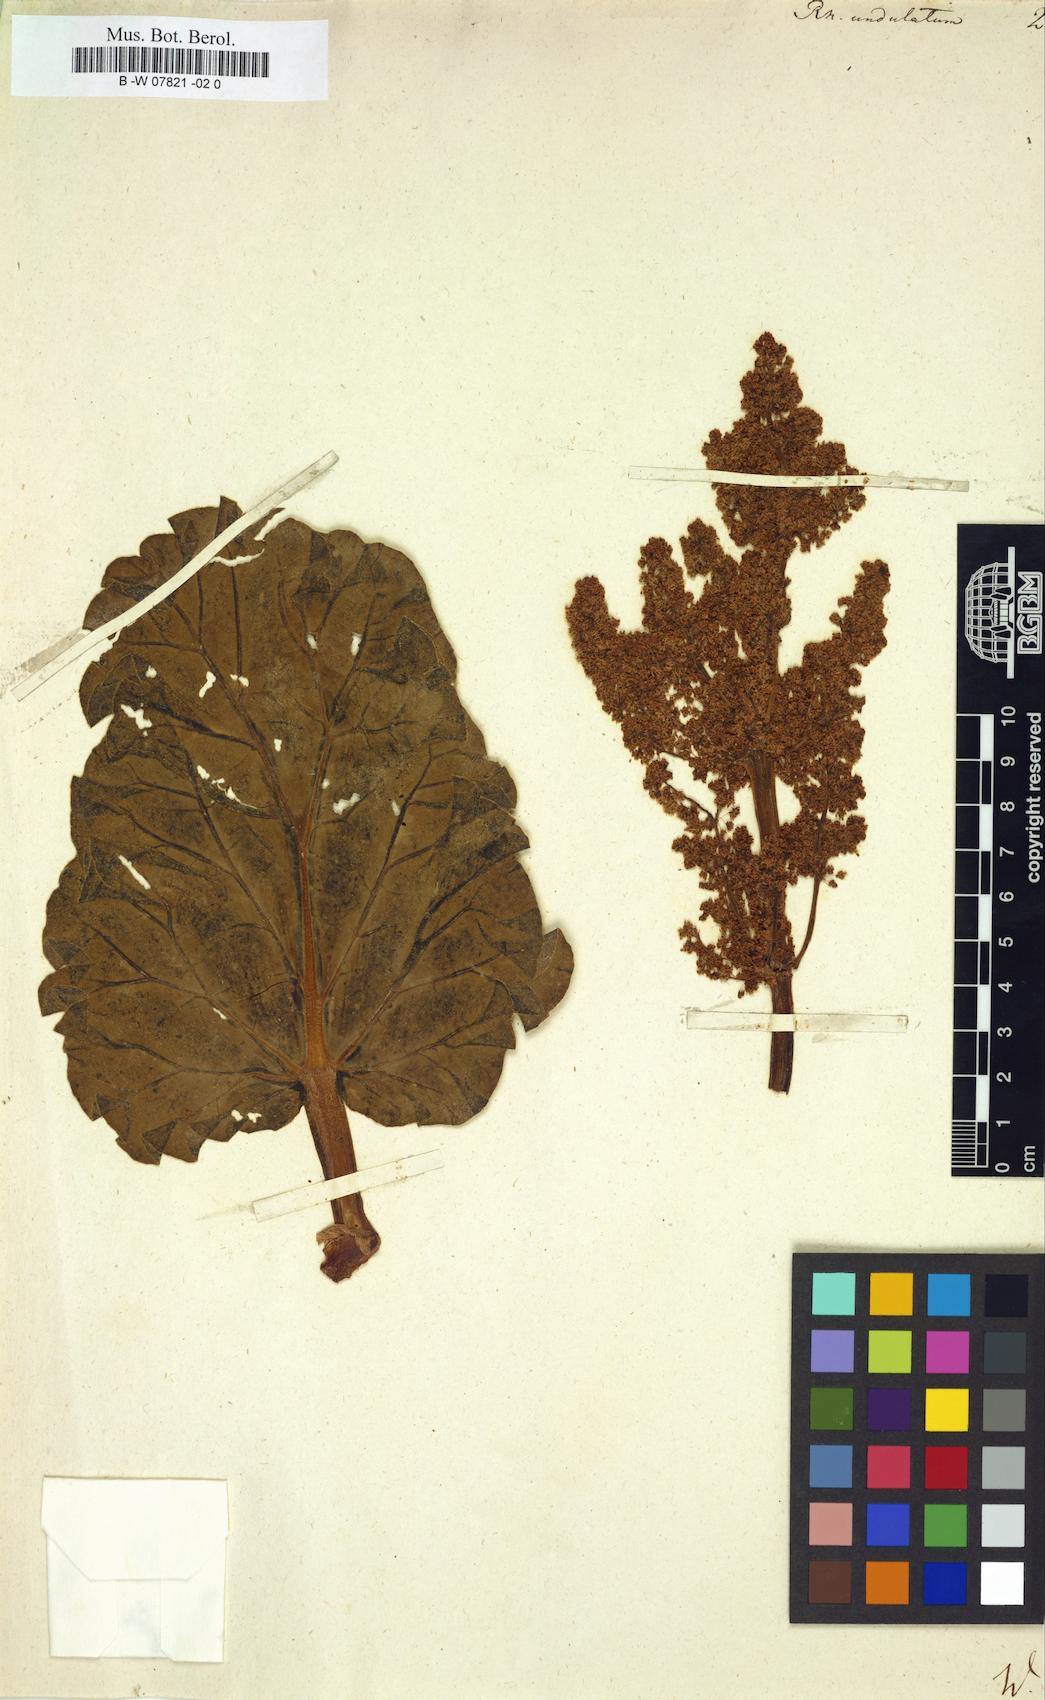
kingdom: Plantae
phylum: Tracheophyta
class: Magnoliopsida
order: Caryophyllales
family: Polygonaceae
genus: Rheum
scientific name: Rheum
